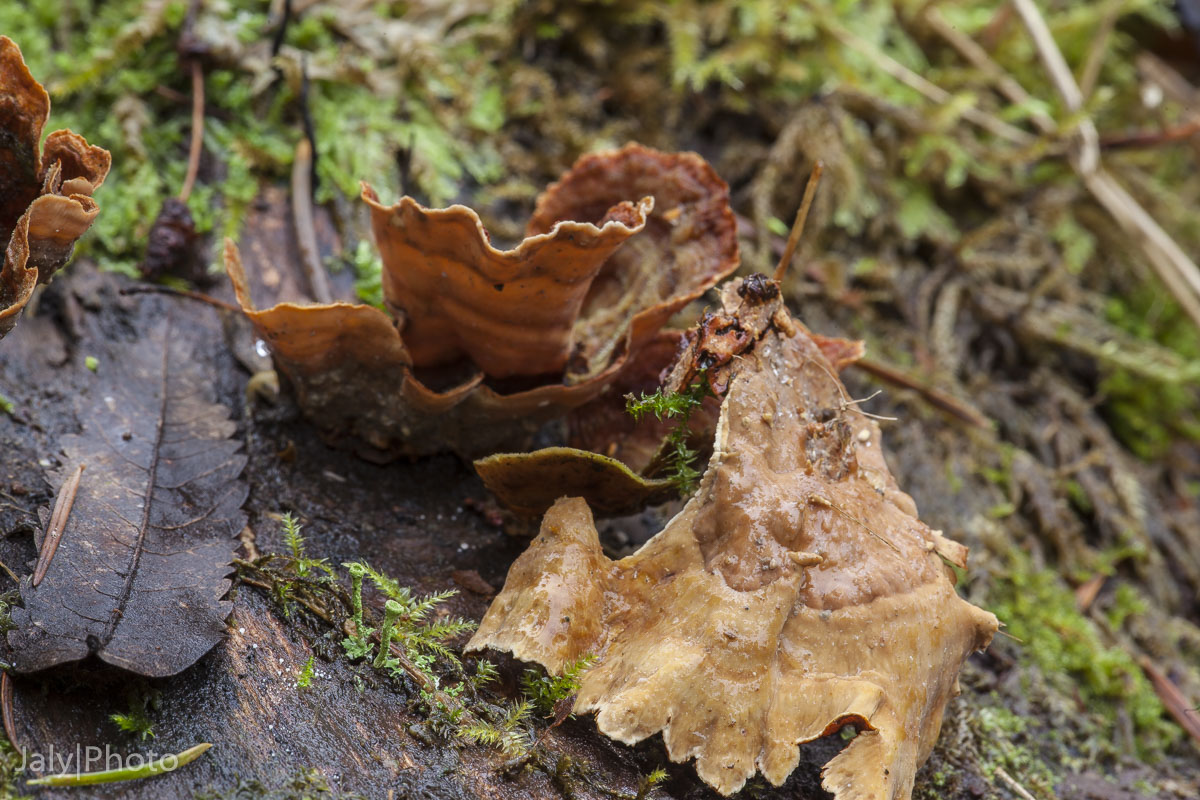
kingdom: Fungi
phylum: Basidiomycota
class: Agaricomycetes
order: Russulales
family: Stereaceae
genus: Stereum
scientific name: Stereum subtomentosum
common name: smuk lædersvamp
